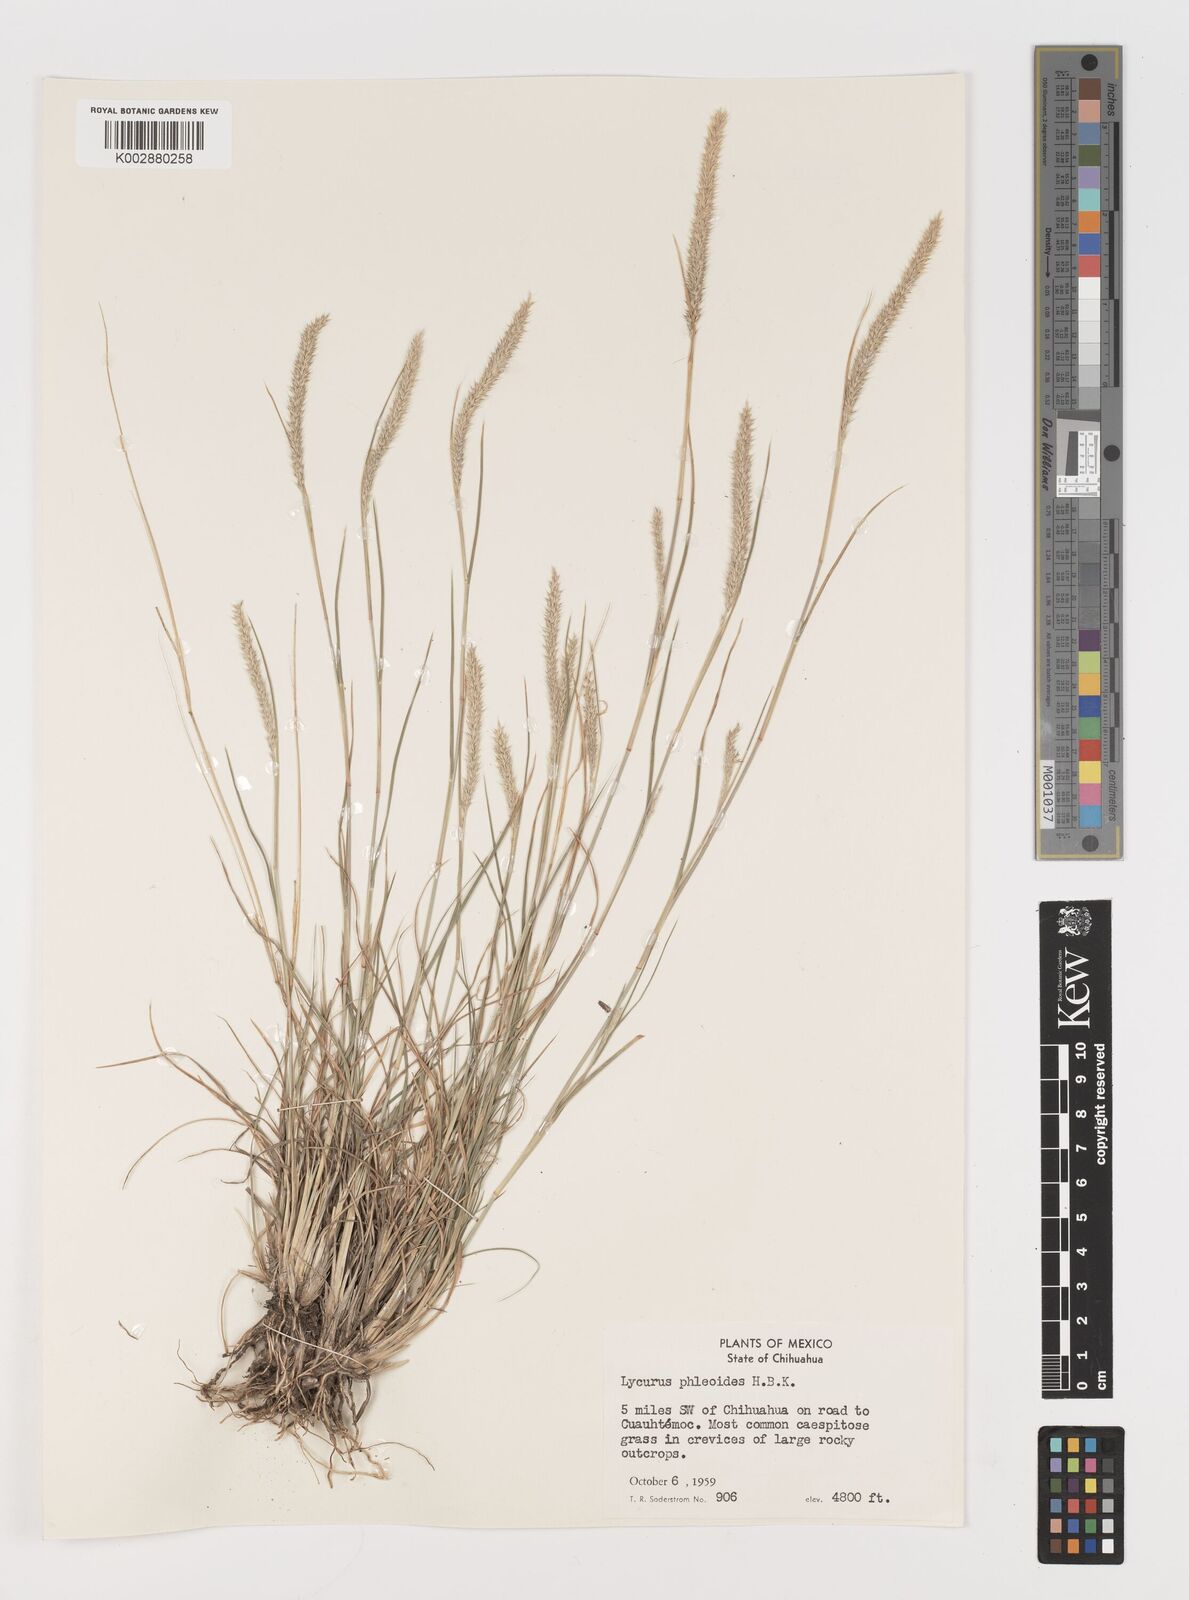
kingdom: Plantae
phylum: Tracheophyta
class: Liliopsida
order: Poales
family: Poaceae
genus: Muhlenbergia
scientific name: Muhlenbergia alopecuroides
